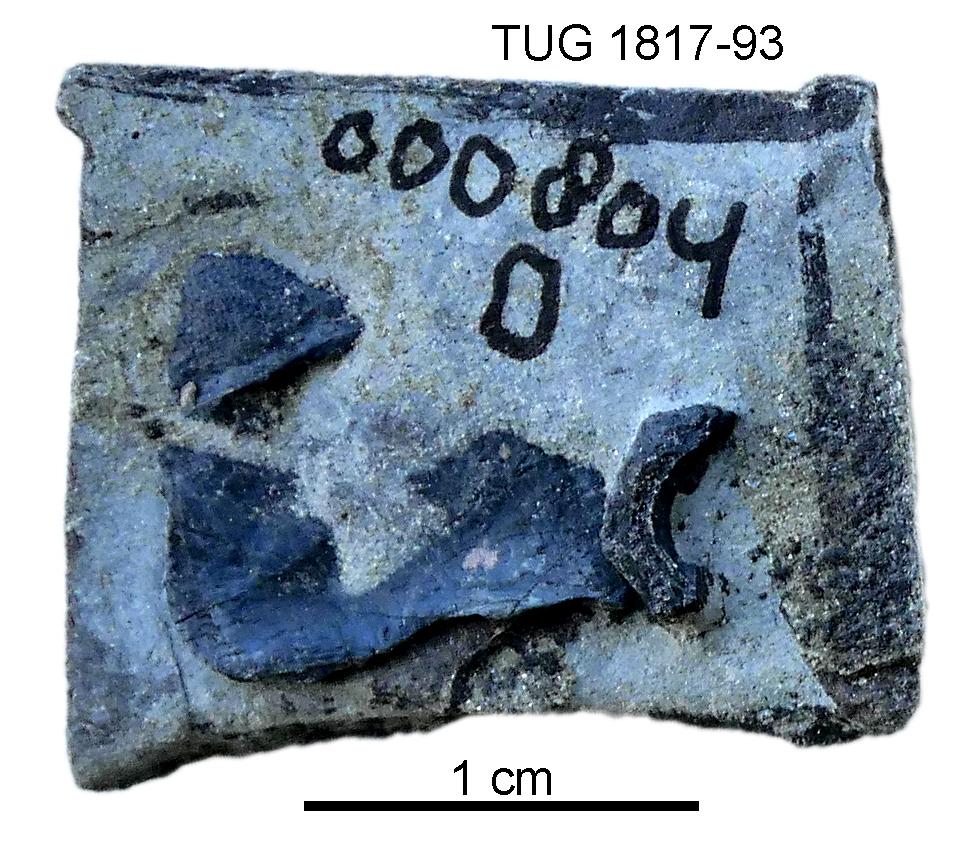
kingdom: Animalia
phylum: Chordata
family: Coccosteidae
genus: Millerosteus
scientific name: Millerosteus minor
